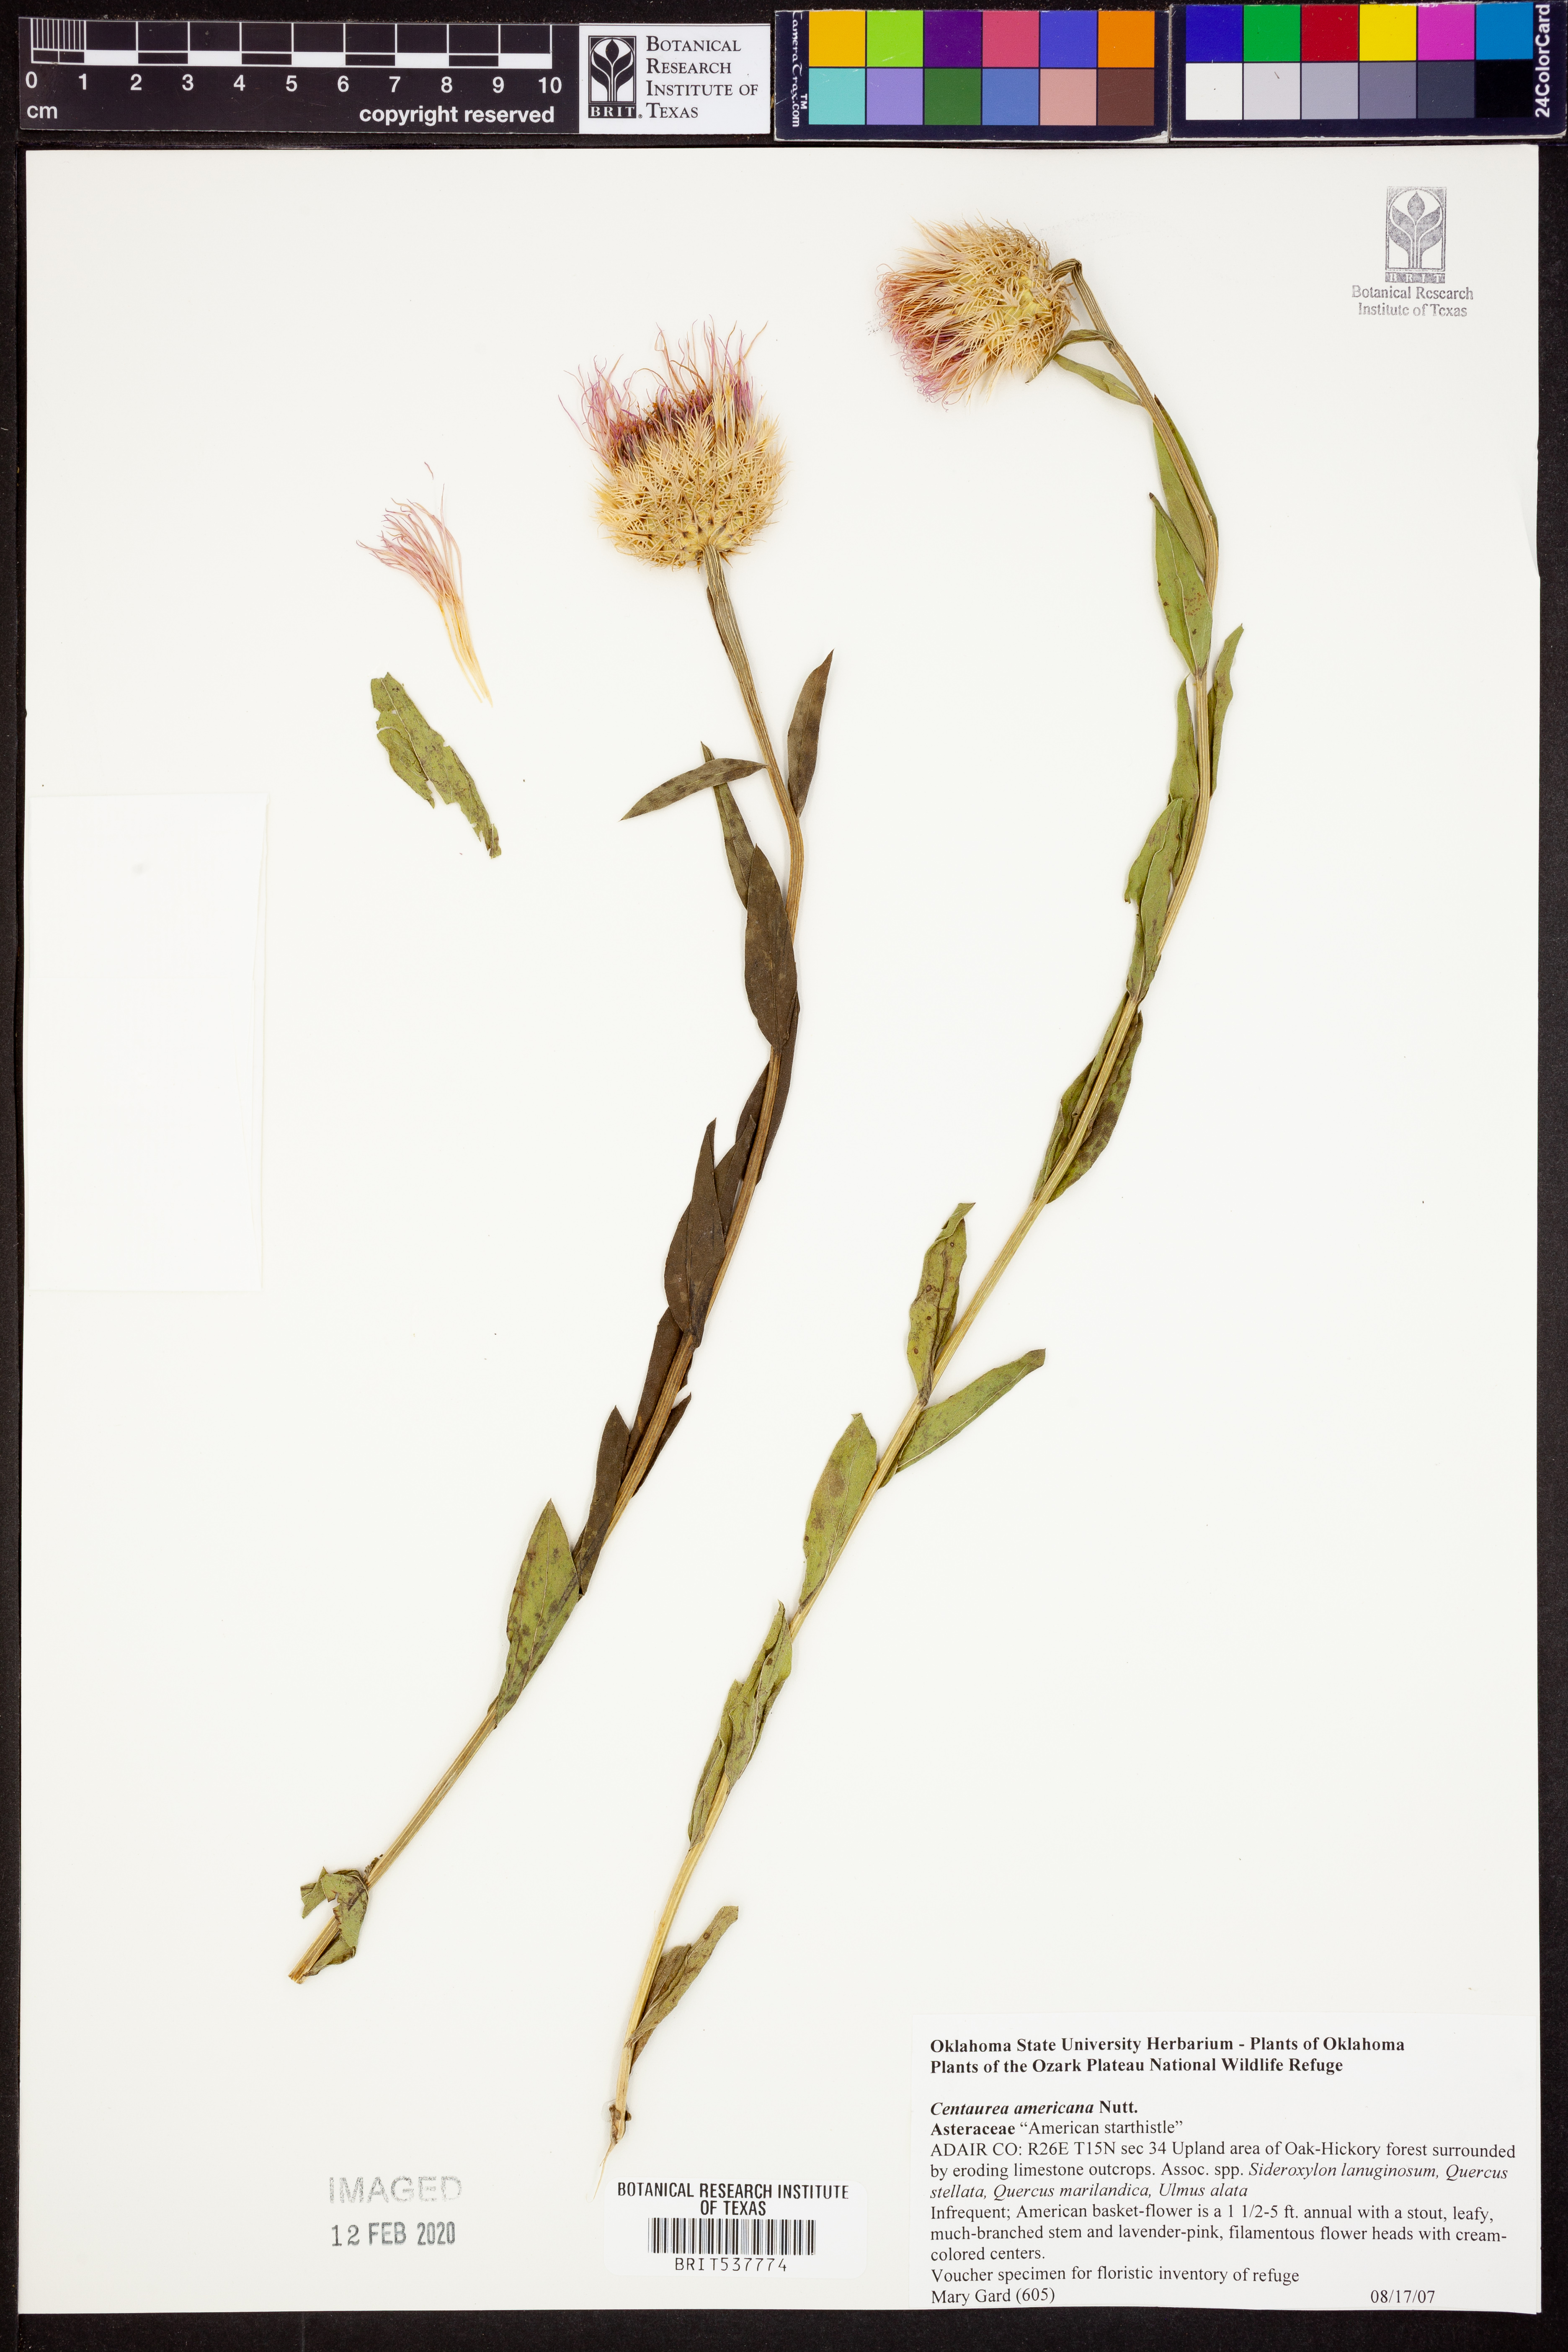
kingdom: Plantae
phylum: Tracheophyta
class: Magnoliopsida
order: Asterales
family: Asteraceae
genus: Plectocephalus
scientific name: Plectocephalus americanus
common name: American basket-flower
